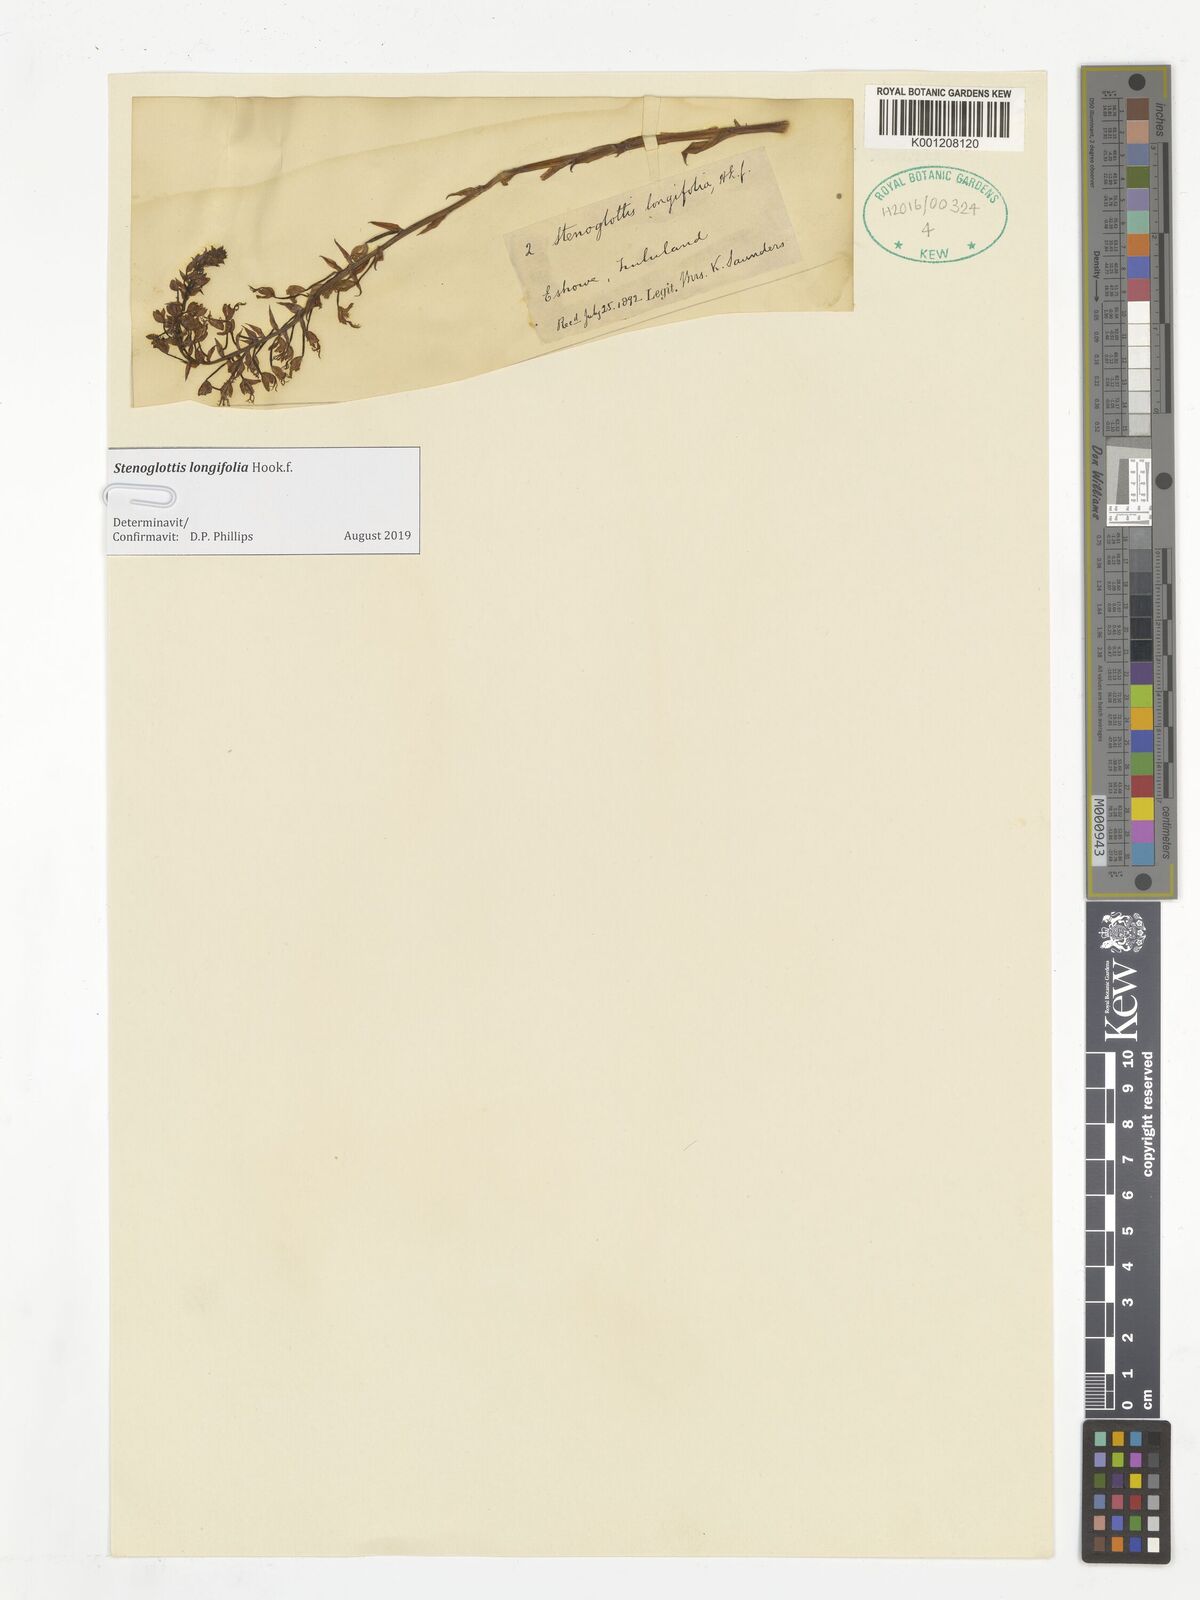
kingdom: Plantae
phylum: Tracheophyta
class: Liliopsida
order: Asparagales
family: Orchidaceae
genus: Stenoglottis
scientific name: Stenoglottis longifolia
